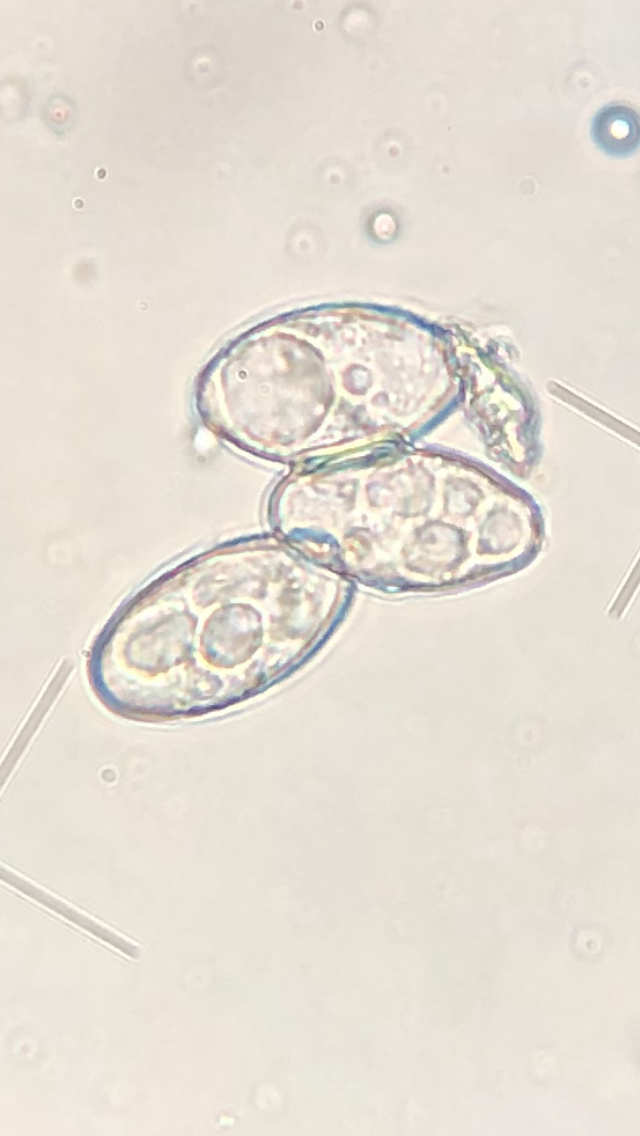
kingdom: Fungi
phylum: Ascomycota
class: Leotiomycetes
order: Helotiales
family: Erysiphaceae
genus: Podosphaera
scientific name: Podosphaera filipendulae
